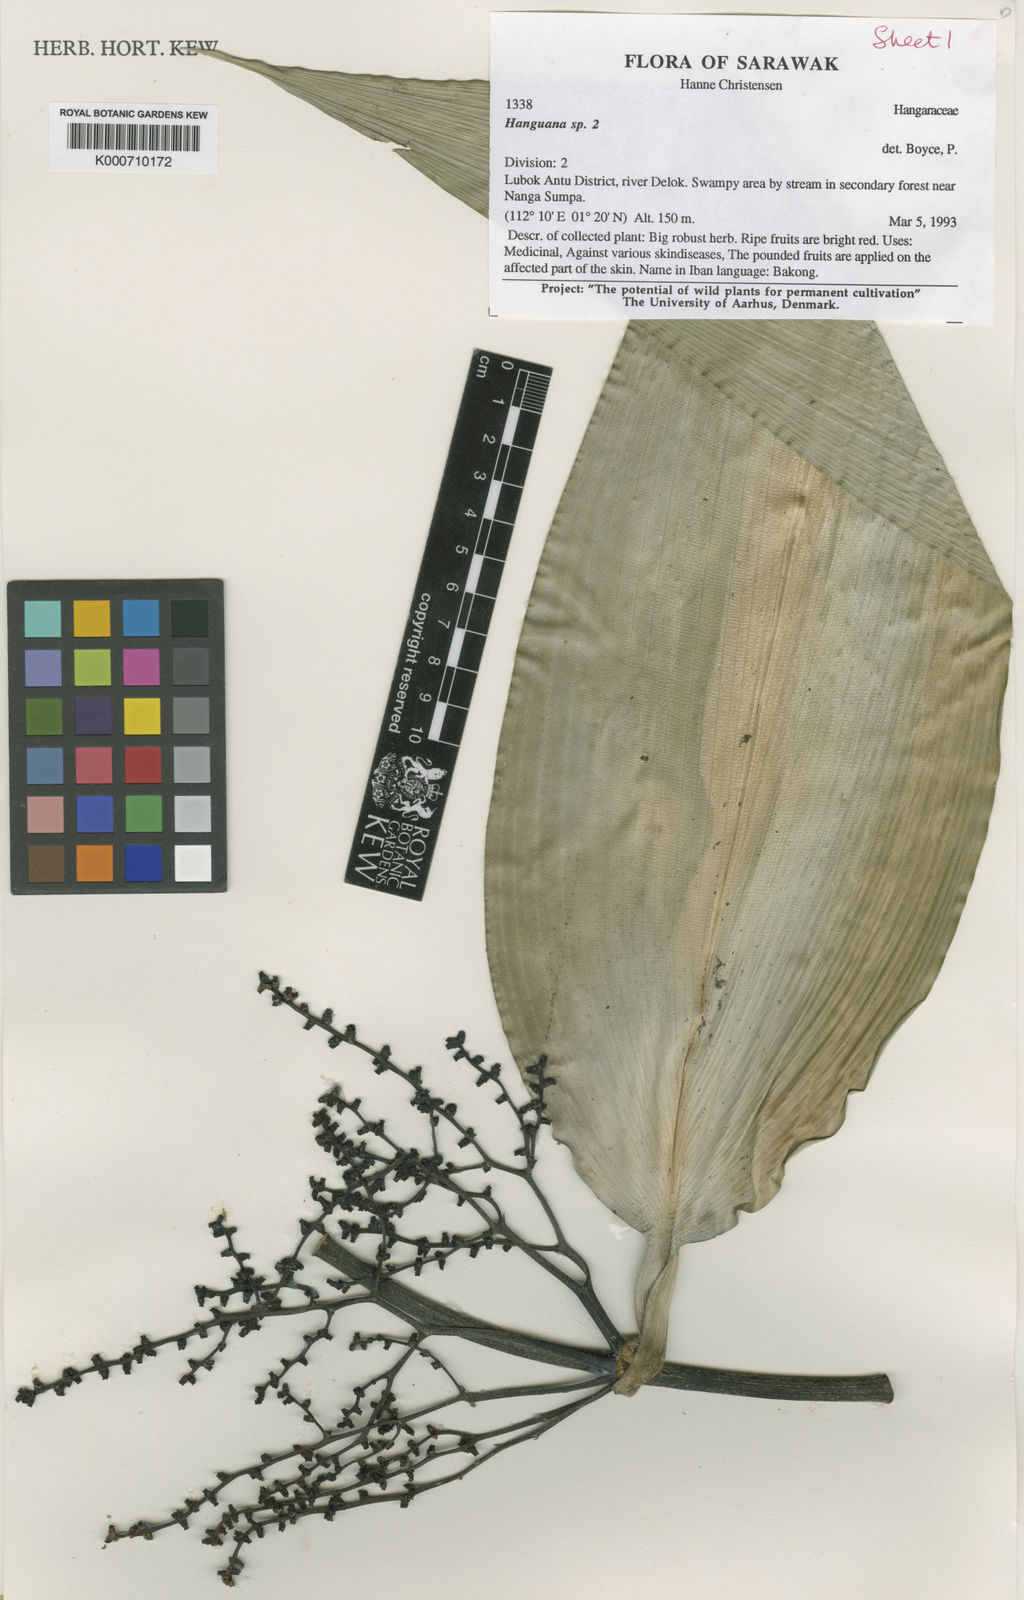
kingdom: Plantae
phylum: Tracheophyta
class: Liliopsida
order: Commelinales
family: Hanguanaceae
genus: Hanguana
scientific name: Hanguana
